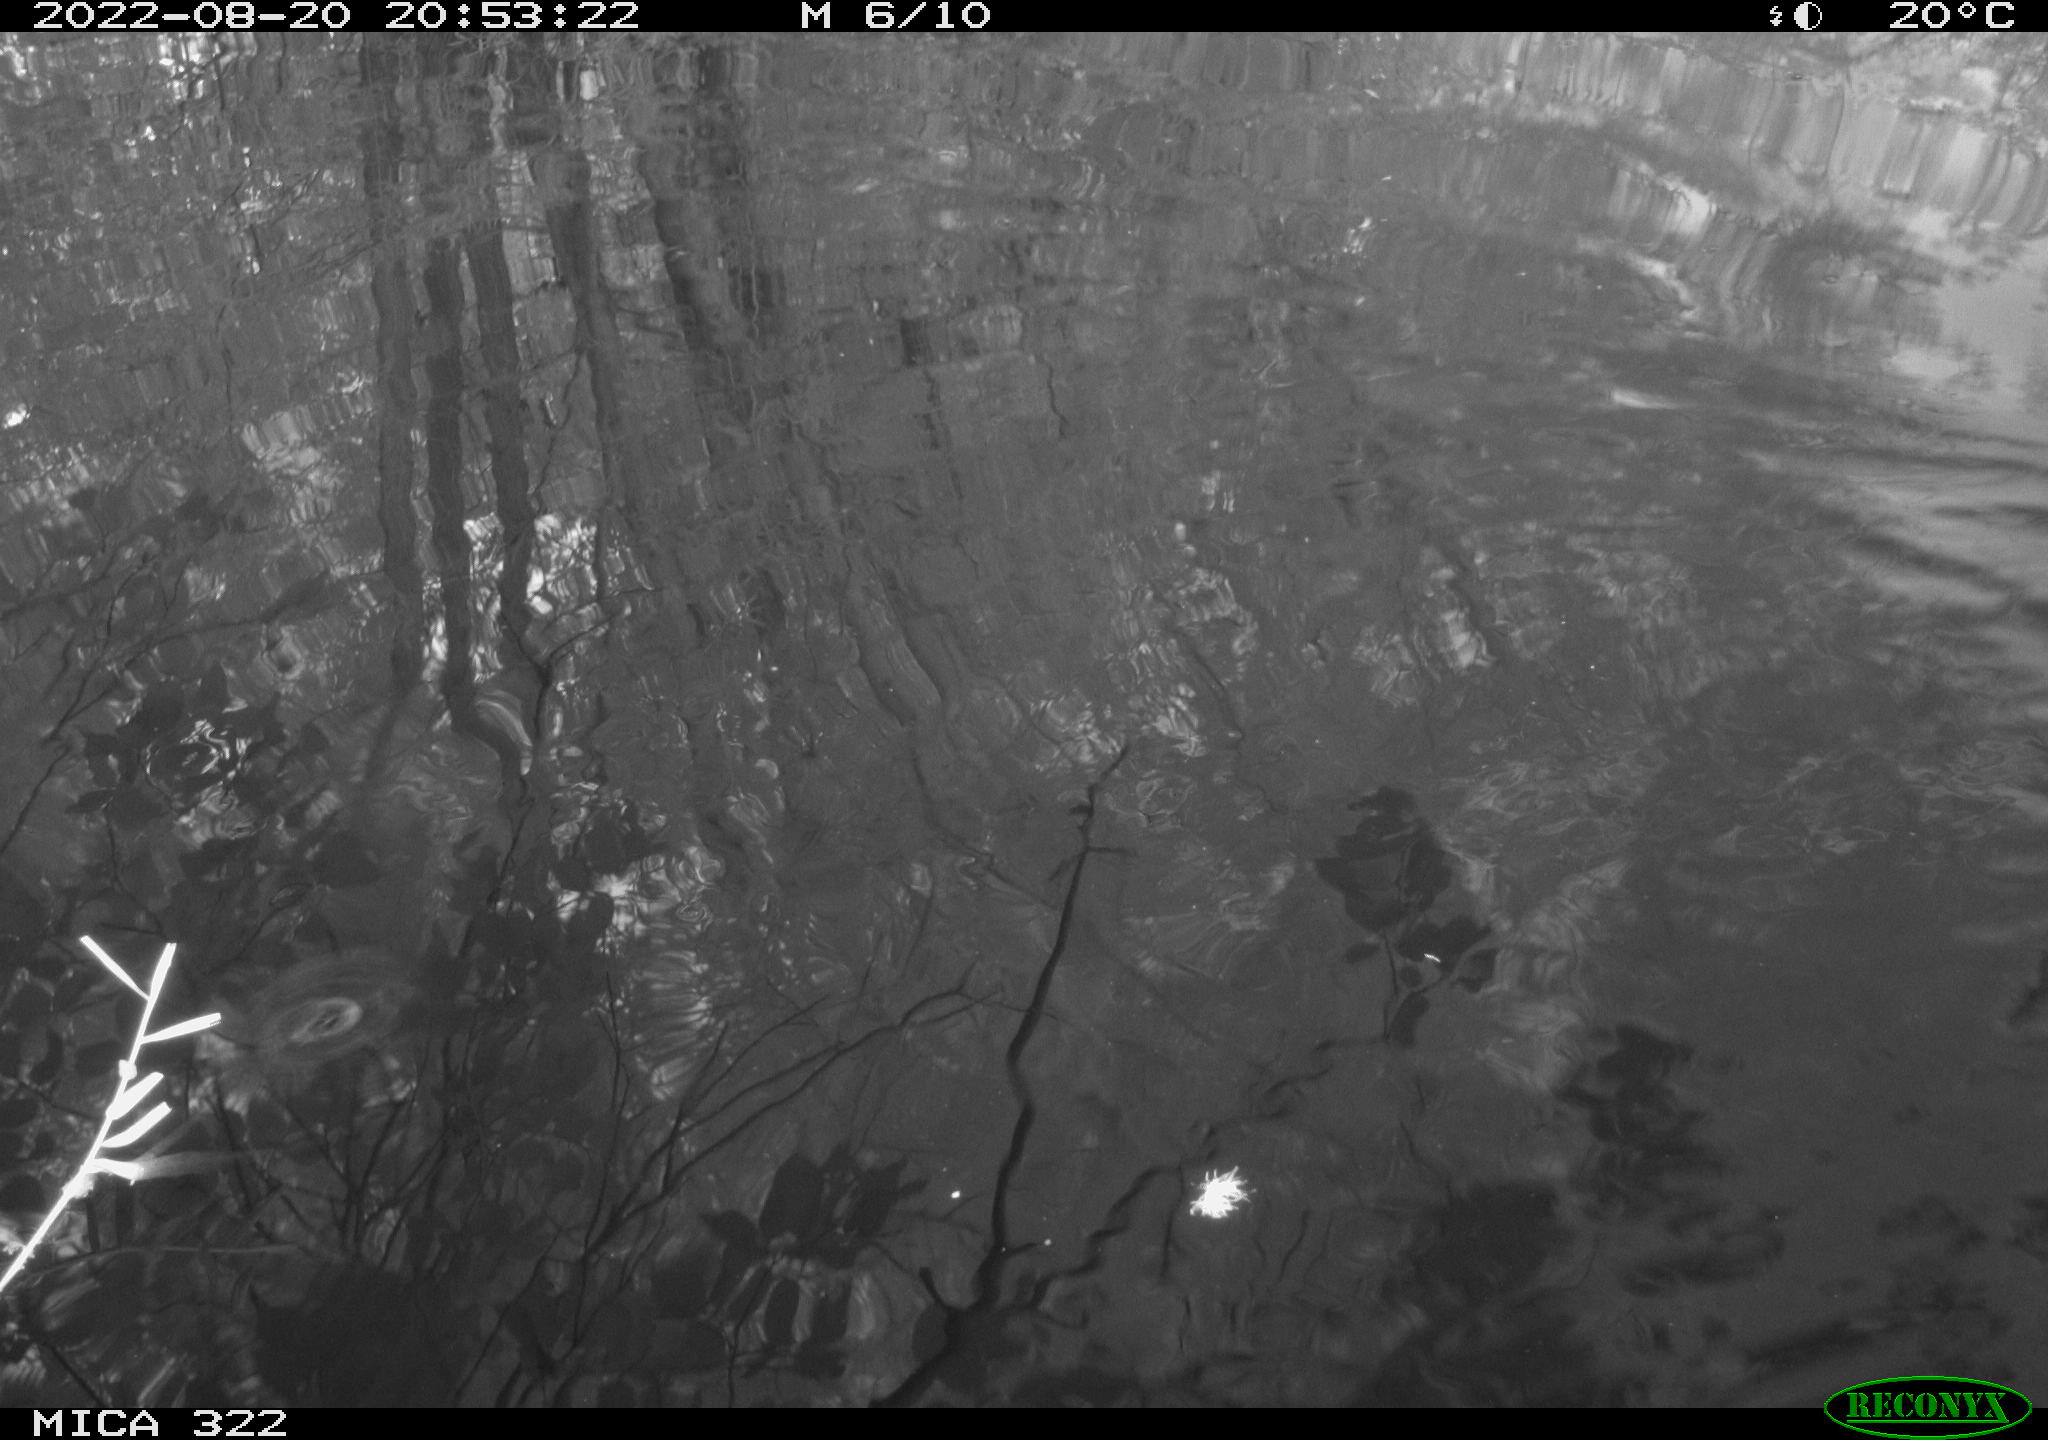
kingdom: Animalia
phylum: Chordata
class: Aves
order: Gruiformes
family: Rallidae
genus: Gallinula
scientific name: Gallinula chloropus
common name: Common moorhen
